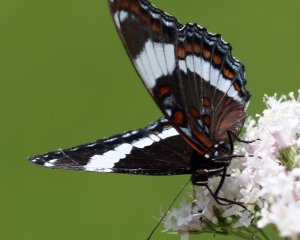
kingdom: Animalia
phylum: Arthropoda
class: Insecta
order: Lepidoptera
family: Nymphalidae
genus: Limenitis
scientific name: Limenitis arthemis
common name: Red-spotted Admiral
